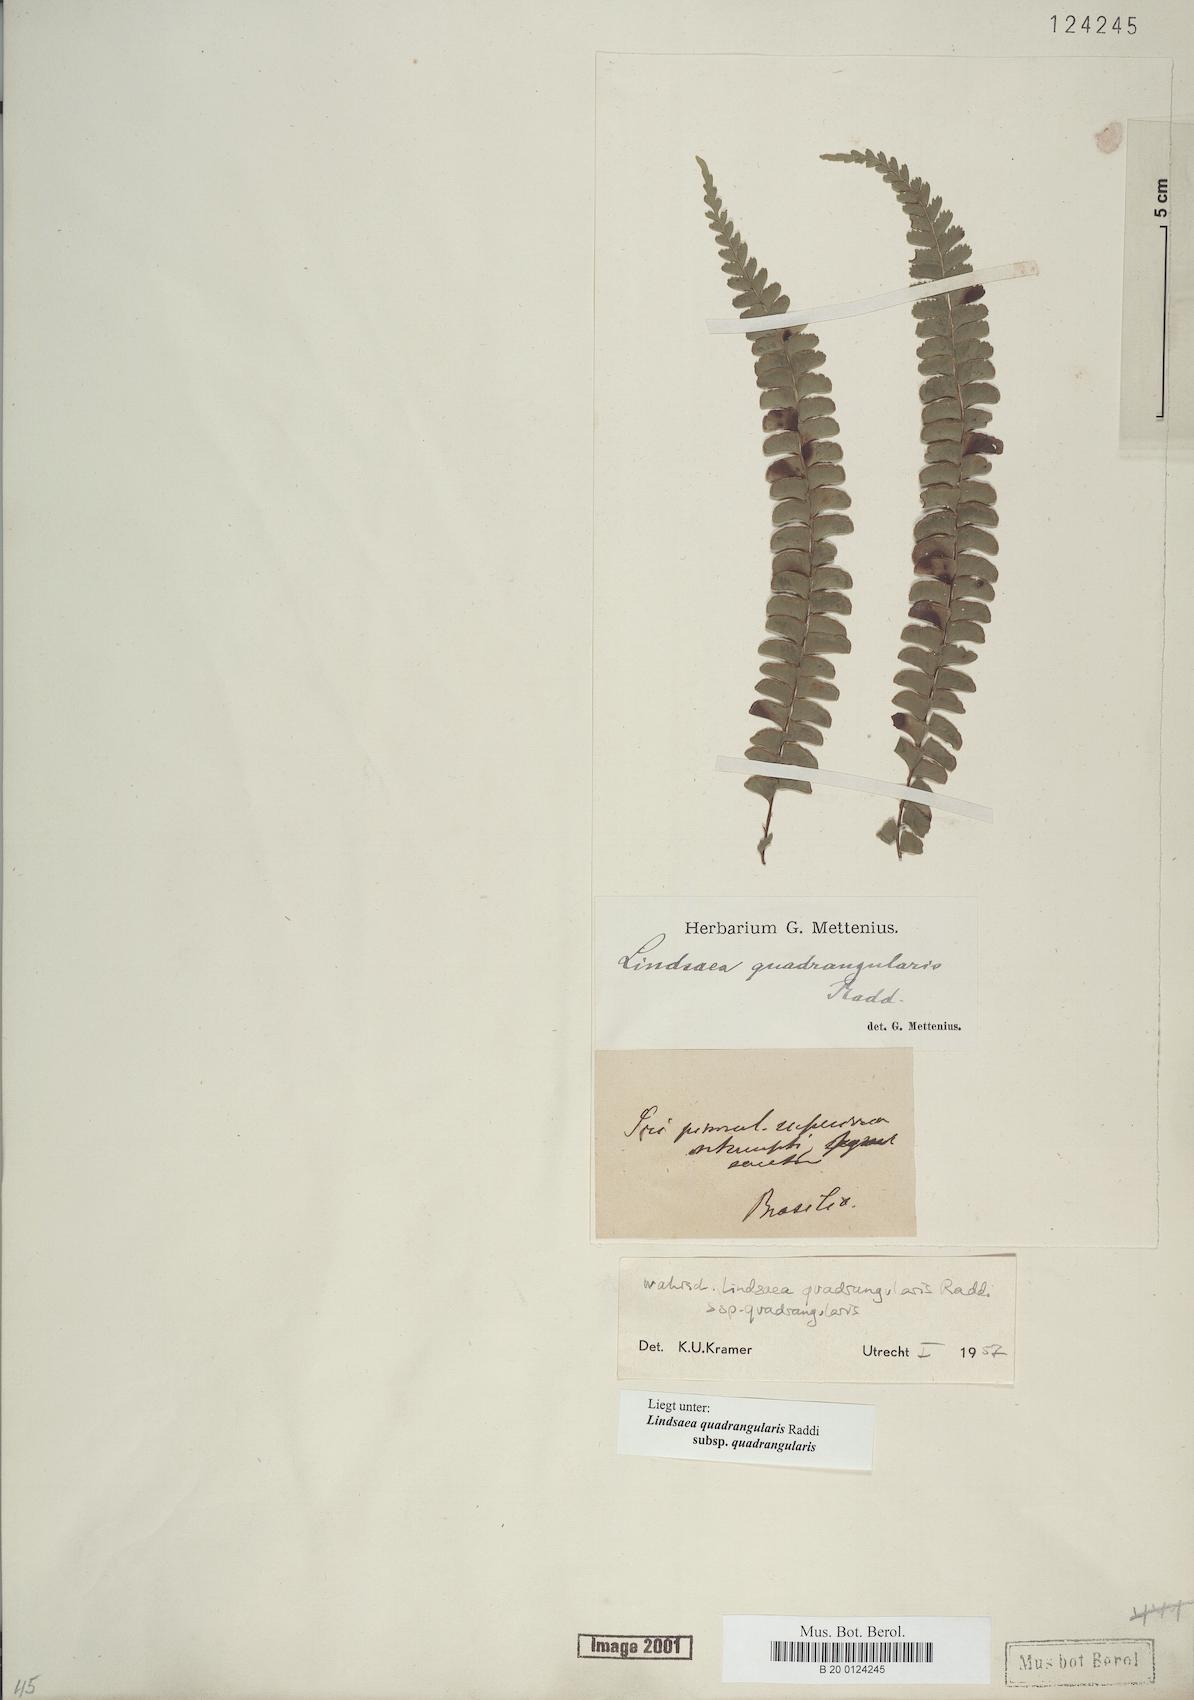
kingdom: Plantae
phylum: Tracheophyta
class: Polypodiopsida
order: Polypodiales
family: Lindsaeaceae
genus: Lindsaea
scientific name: Lindsaea quadrangularis
